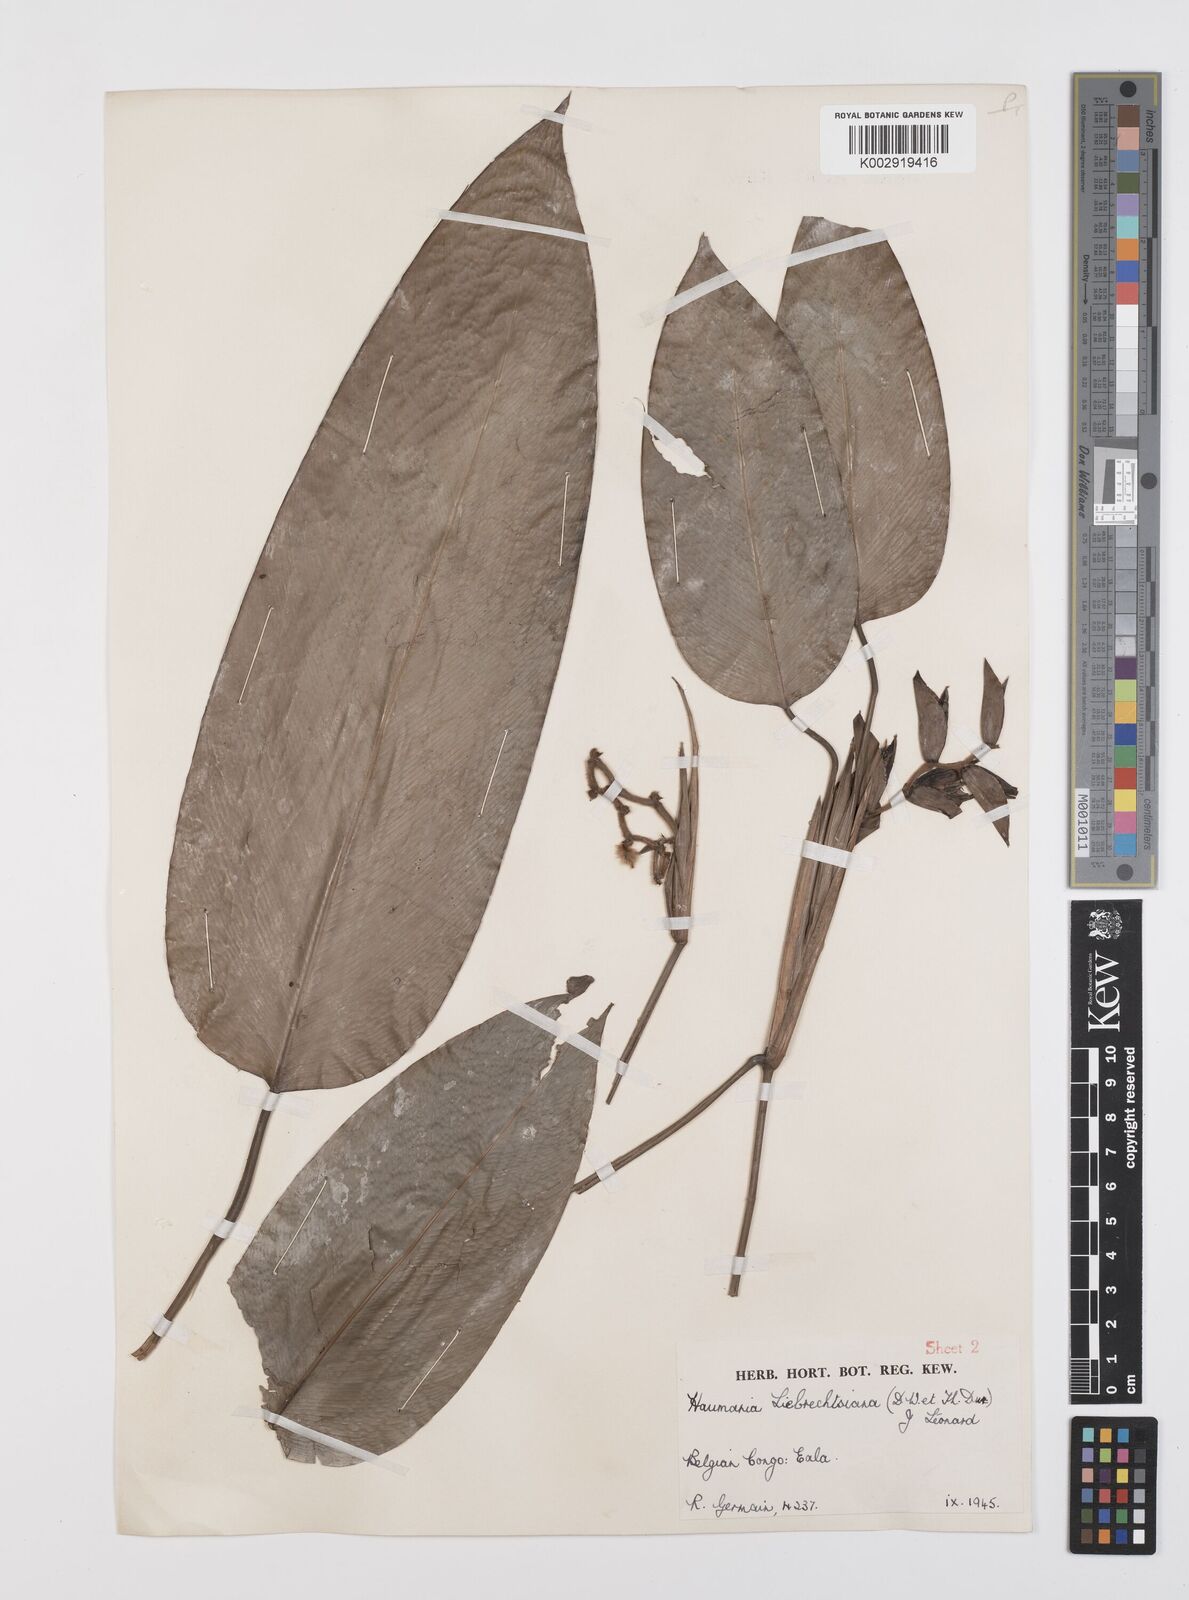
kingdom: Plantae
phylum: Tracheophyta
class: Liliopsida
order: Zingiberales
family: Marantaceae
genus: Haumania
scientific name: Haumania liebrechtsiana
